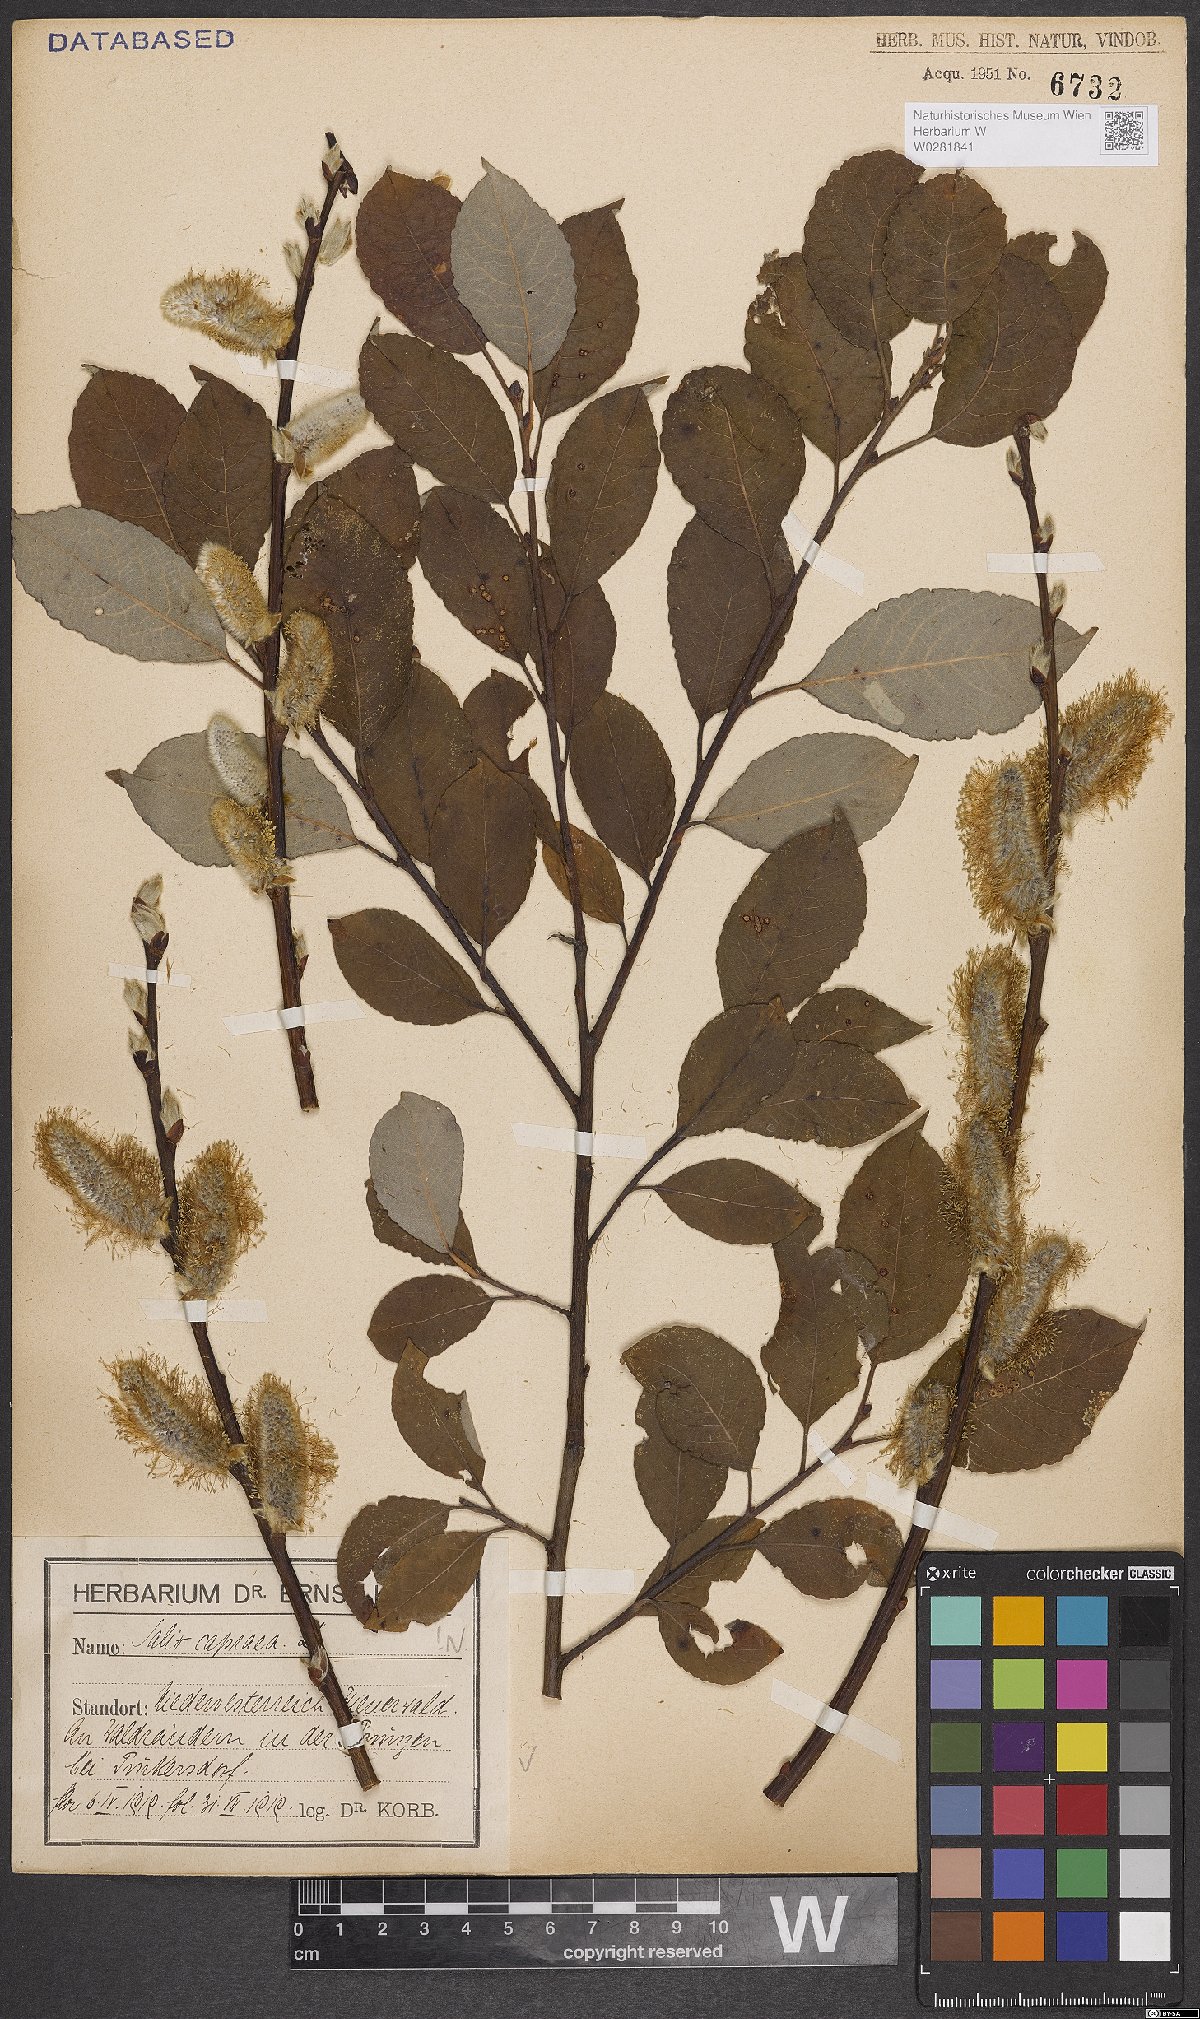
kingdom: Plantae
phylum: Tracheophyta
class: Magnoliopsida
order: Malpighiales
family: Salicaceae
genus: Salix
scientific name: Salix caprea
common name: Goat willow
